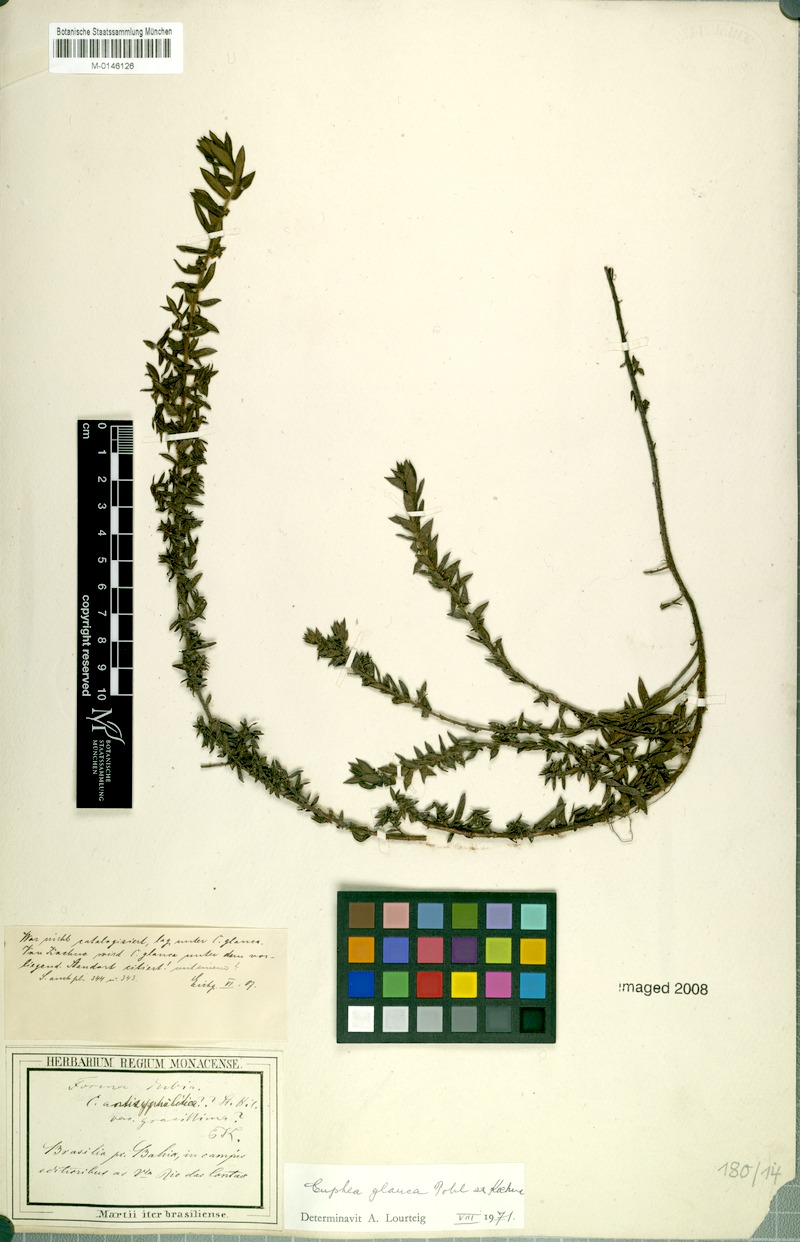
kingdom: Plantae
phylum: Tracheophyta
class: Magnoliopsida
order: Myrtales
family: Lythraceae
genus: Cuphea
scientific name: Cuphea glauca
